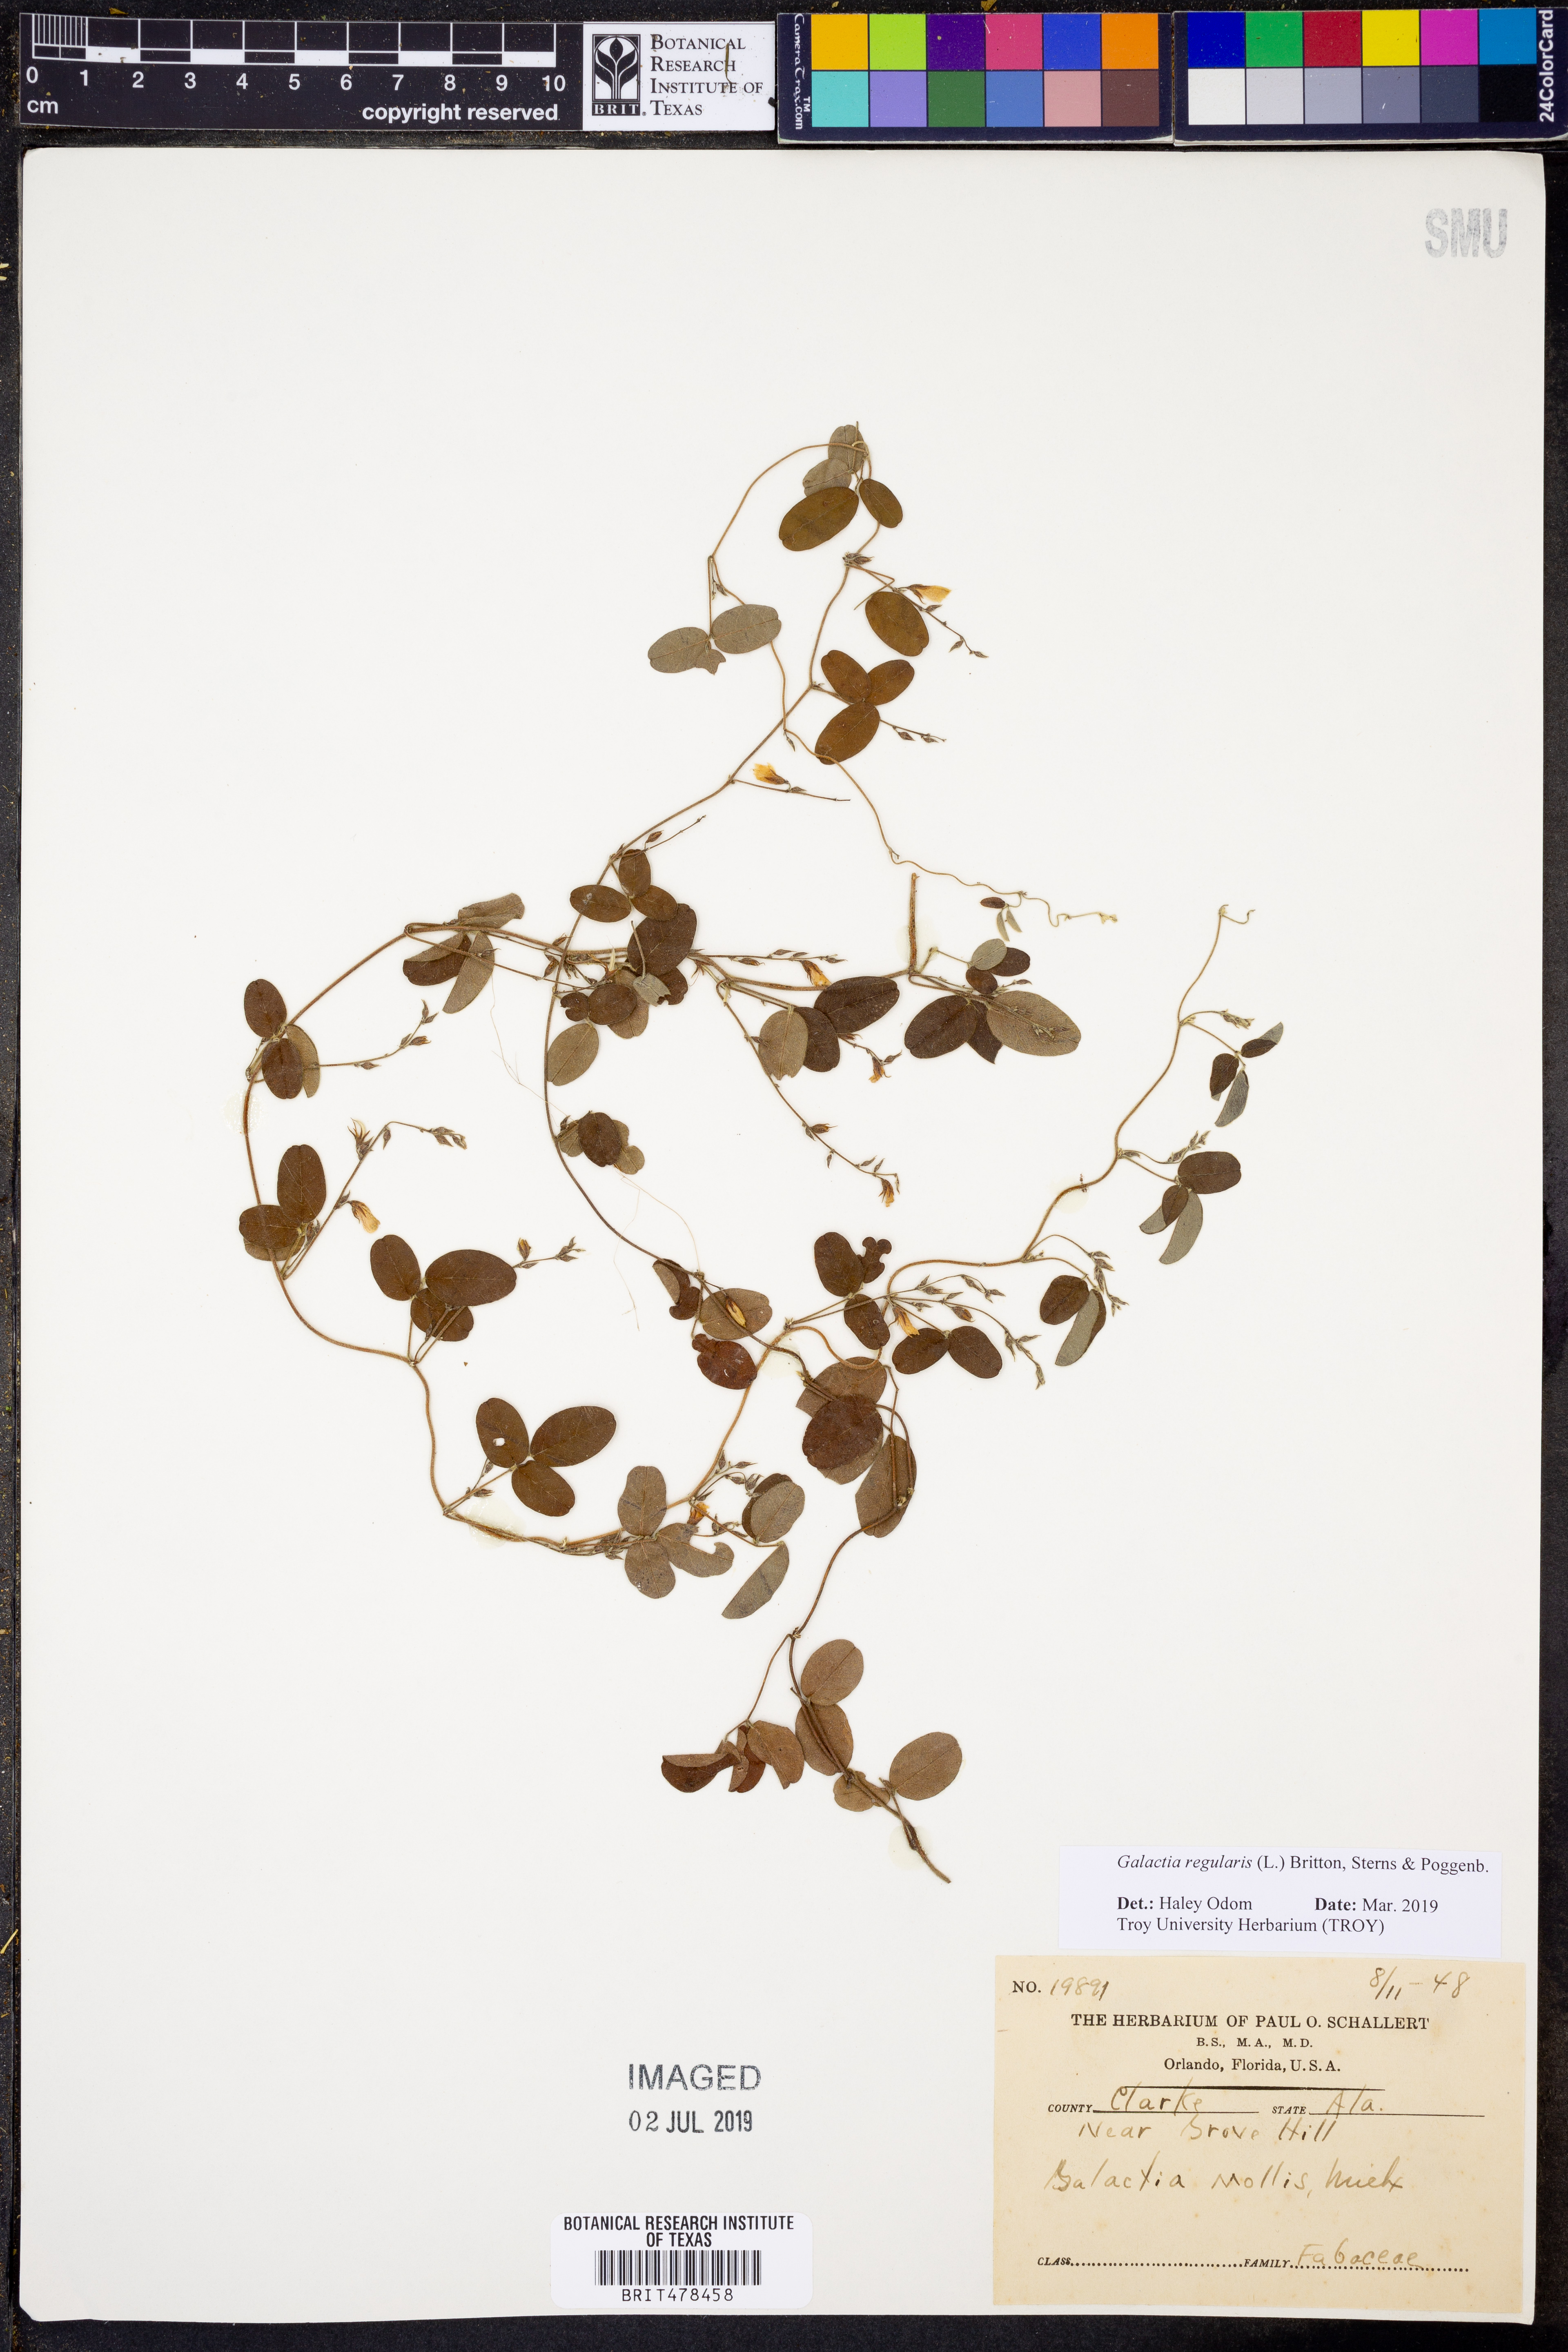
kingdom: Plantae
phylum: Tracheophyta
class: Magnoliopsida
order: Fabales
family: Fabaceae
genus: Galactia
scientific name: Galactia regularis
